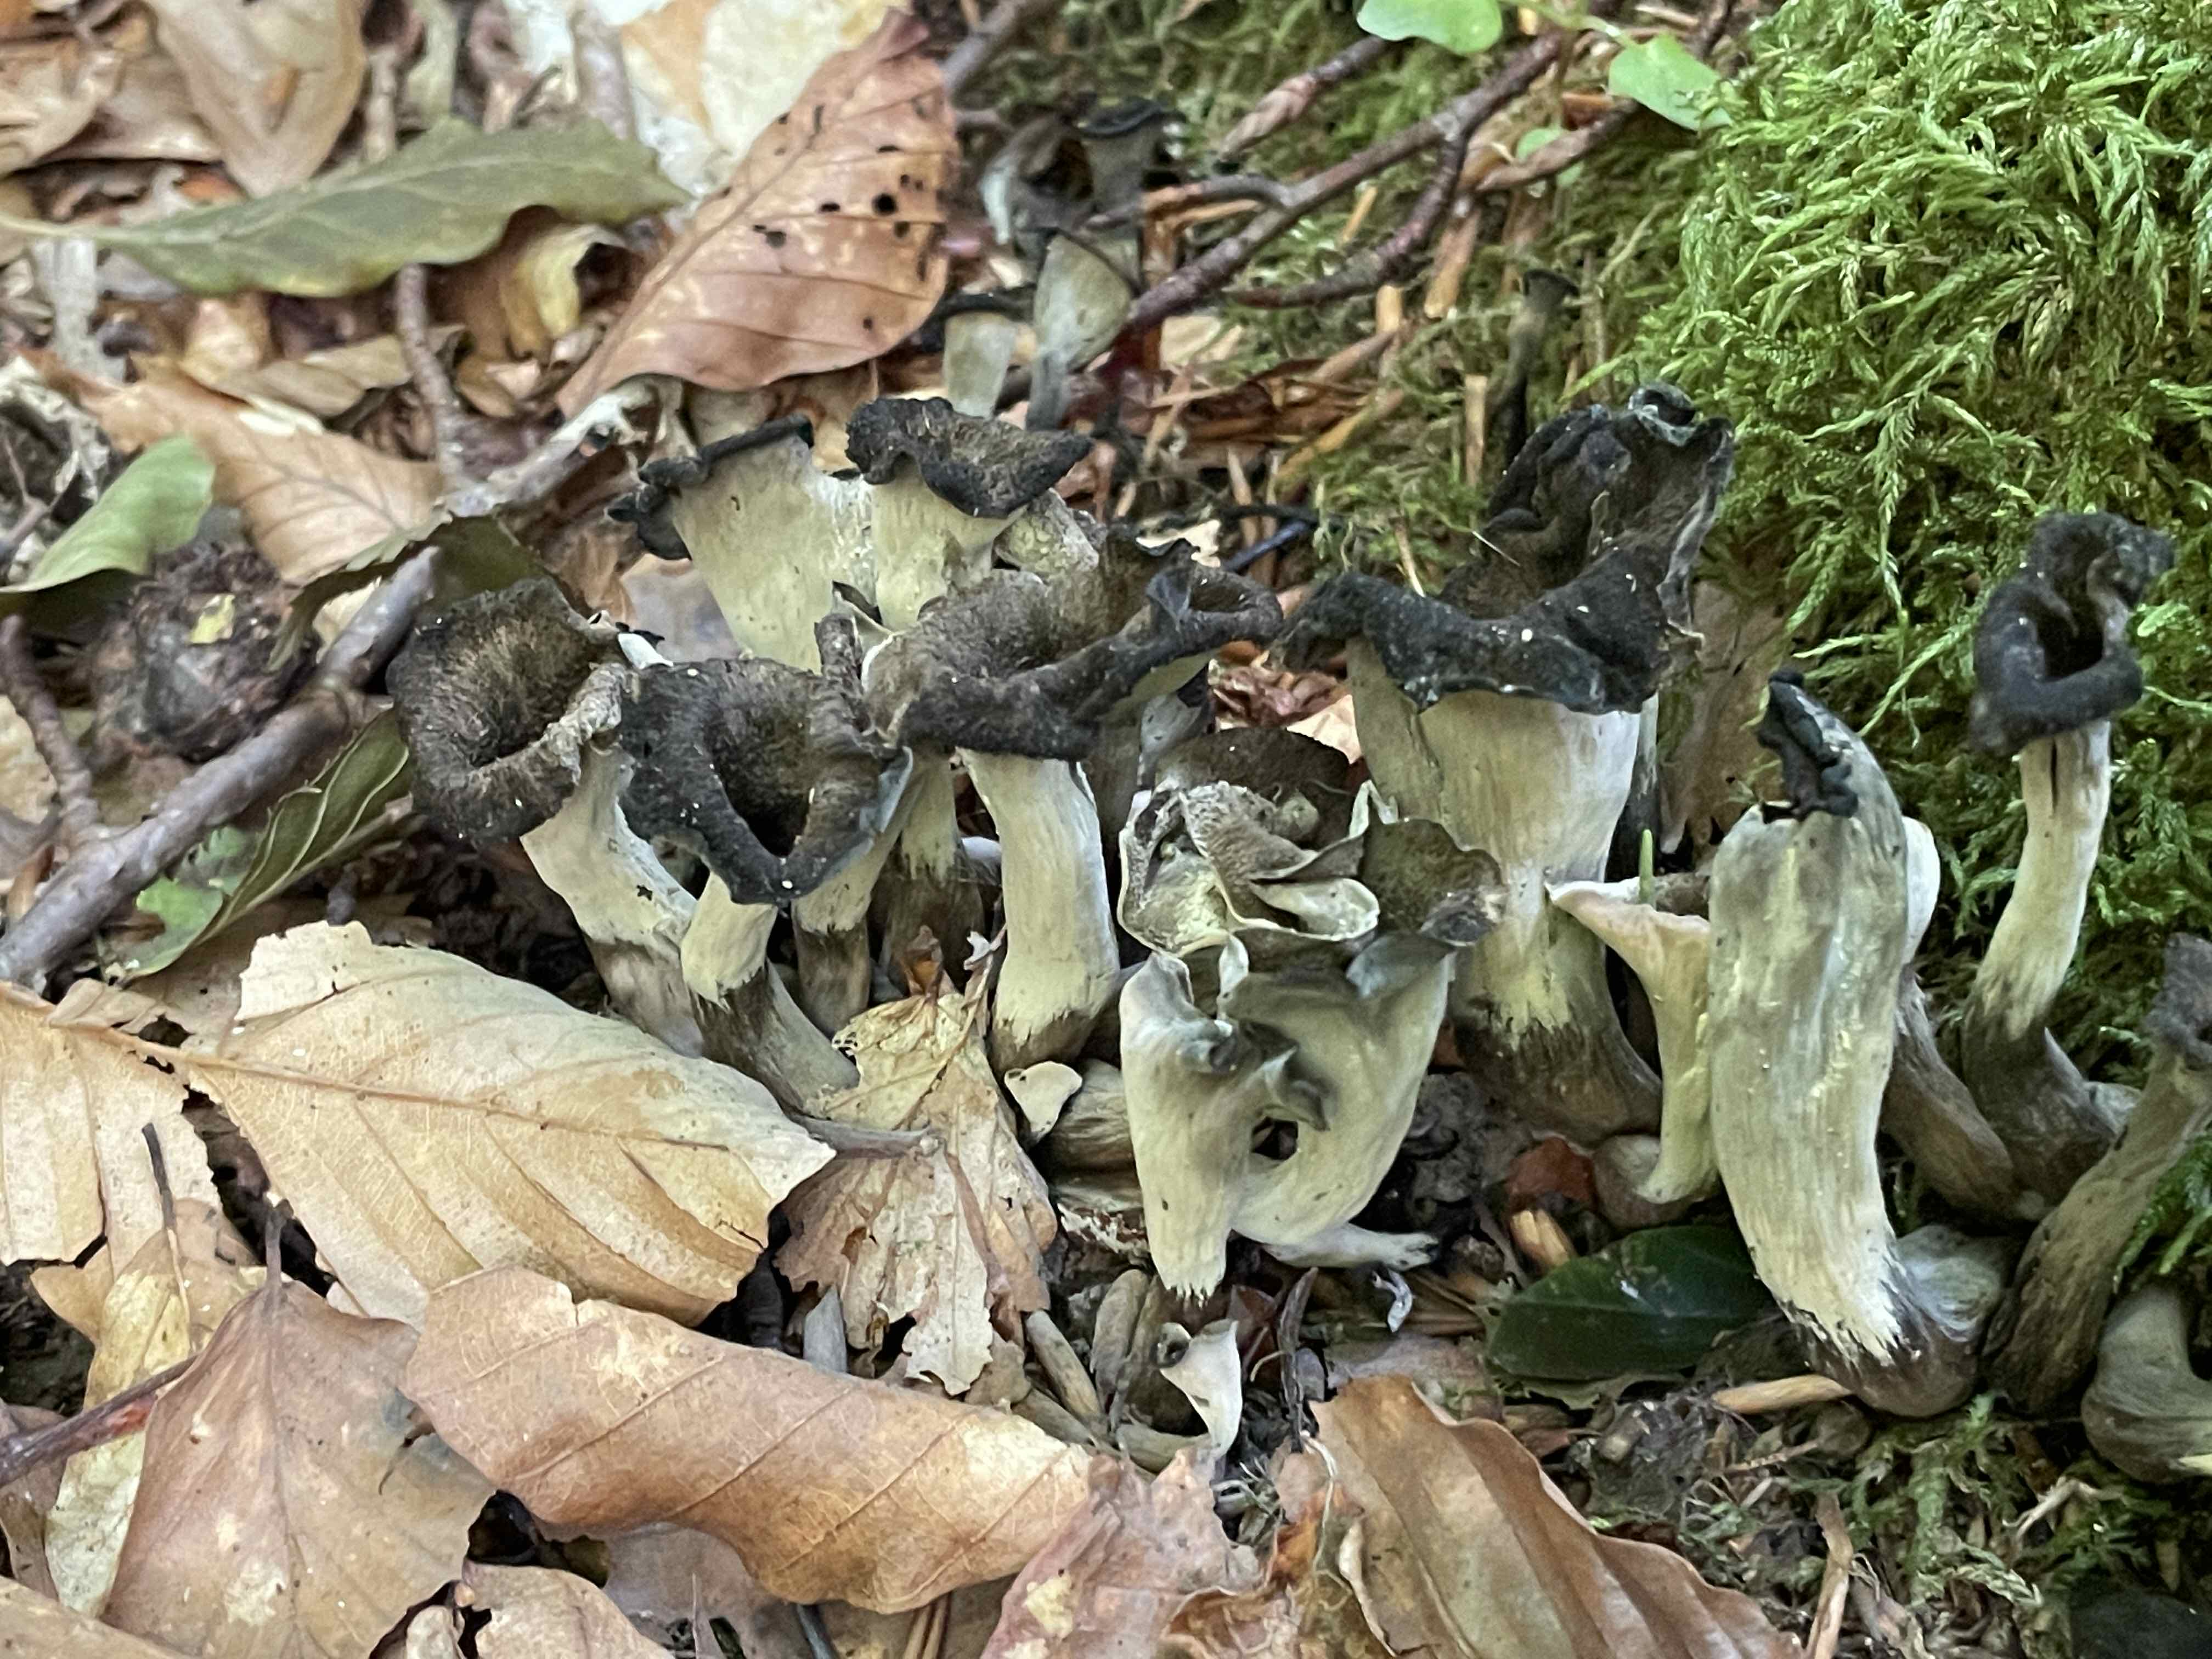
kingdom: Fungi
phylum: Basidiomycota
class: Agaricomycetes
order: Cantharellales
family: Hydnaceae
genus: Craterellus
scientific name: Craterellus cornucopioides
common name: trompetsvamp
